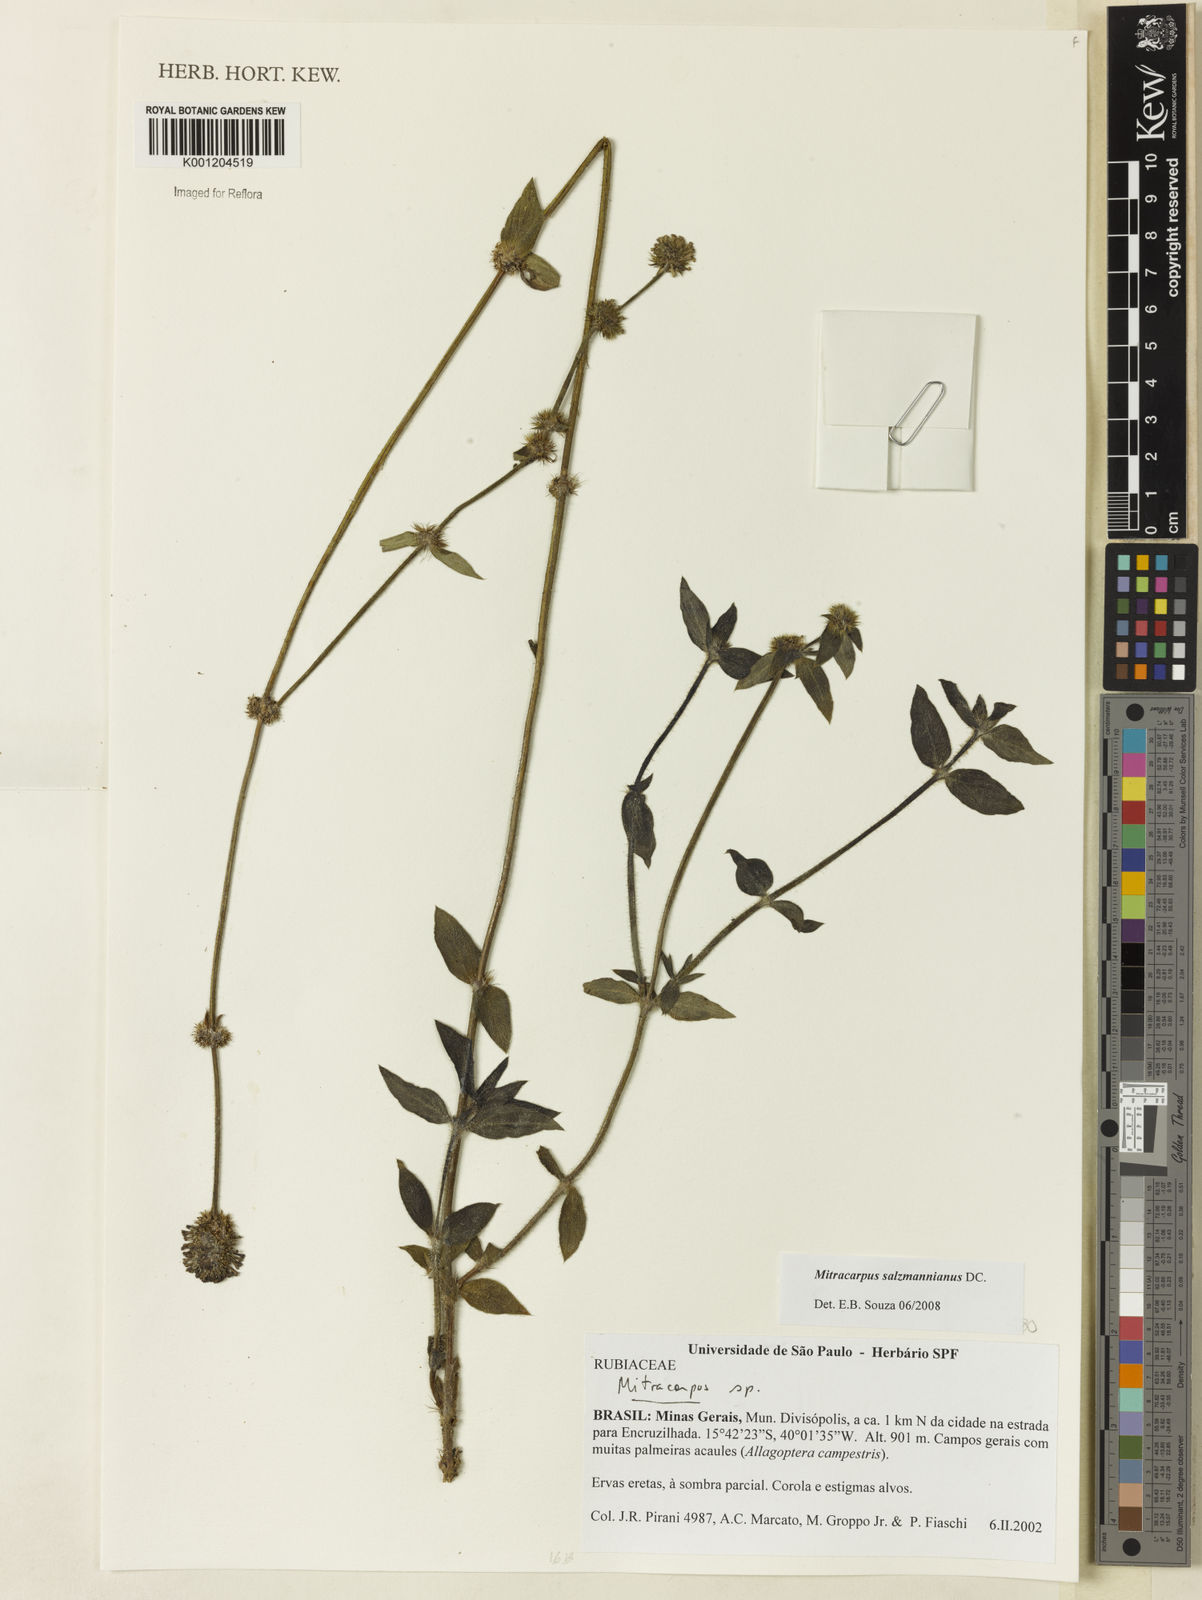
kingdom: Plantae
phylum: Tracheophyta
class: Magnoliopsida
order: Gentianales
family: Rubiaceae
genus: Mitracarpus
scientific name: Mitracarpus salzmannianus
